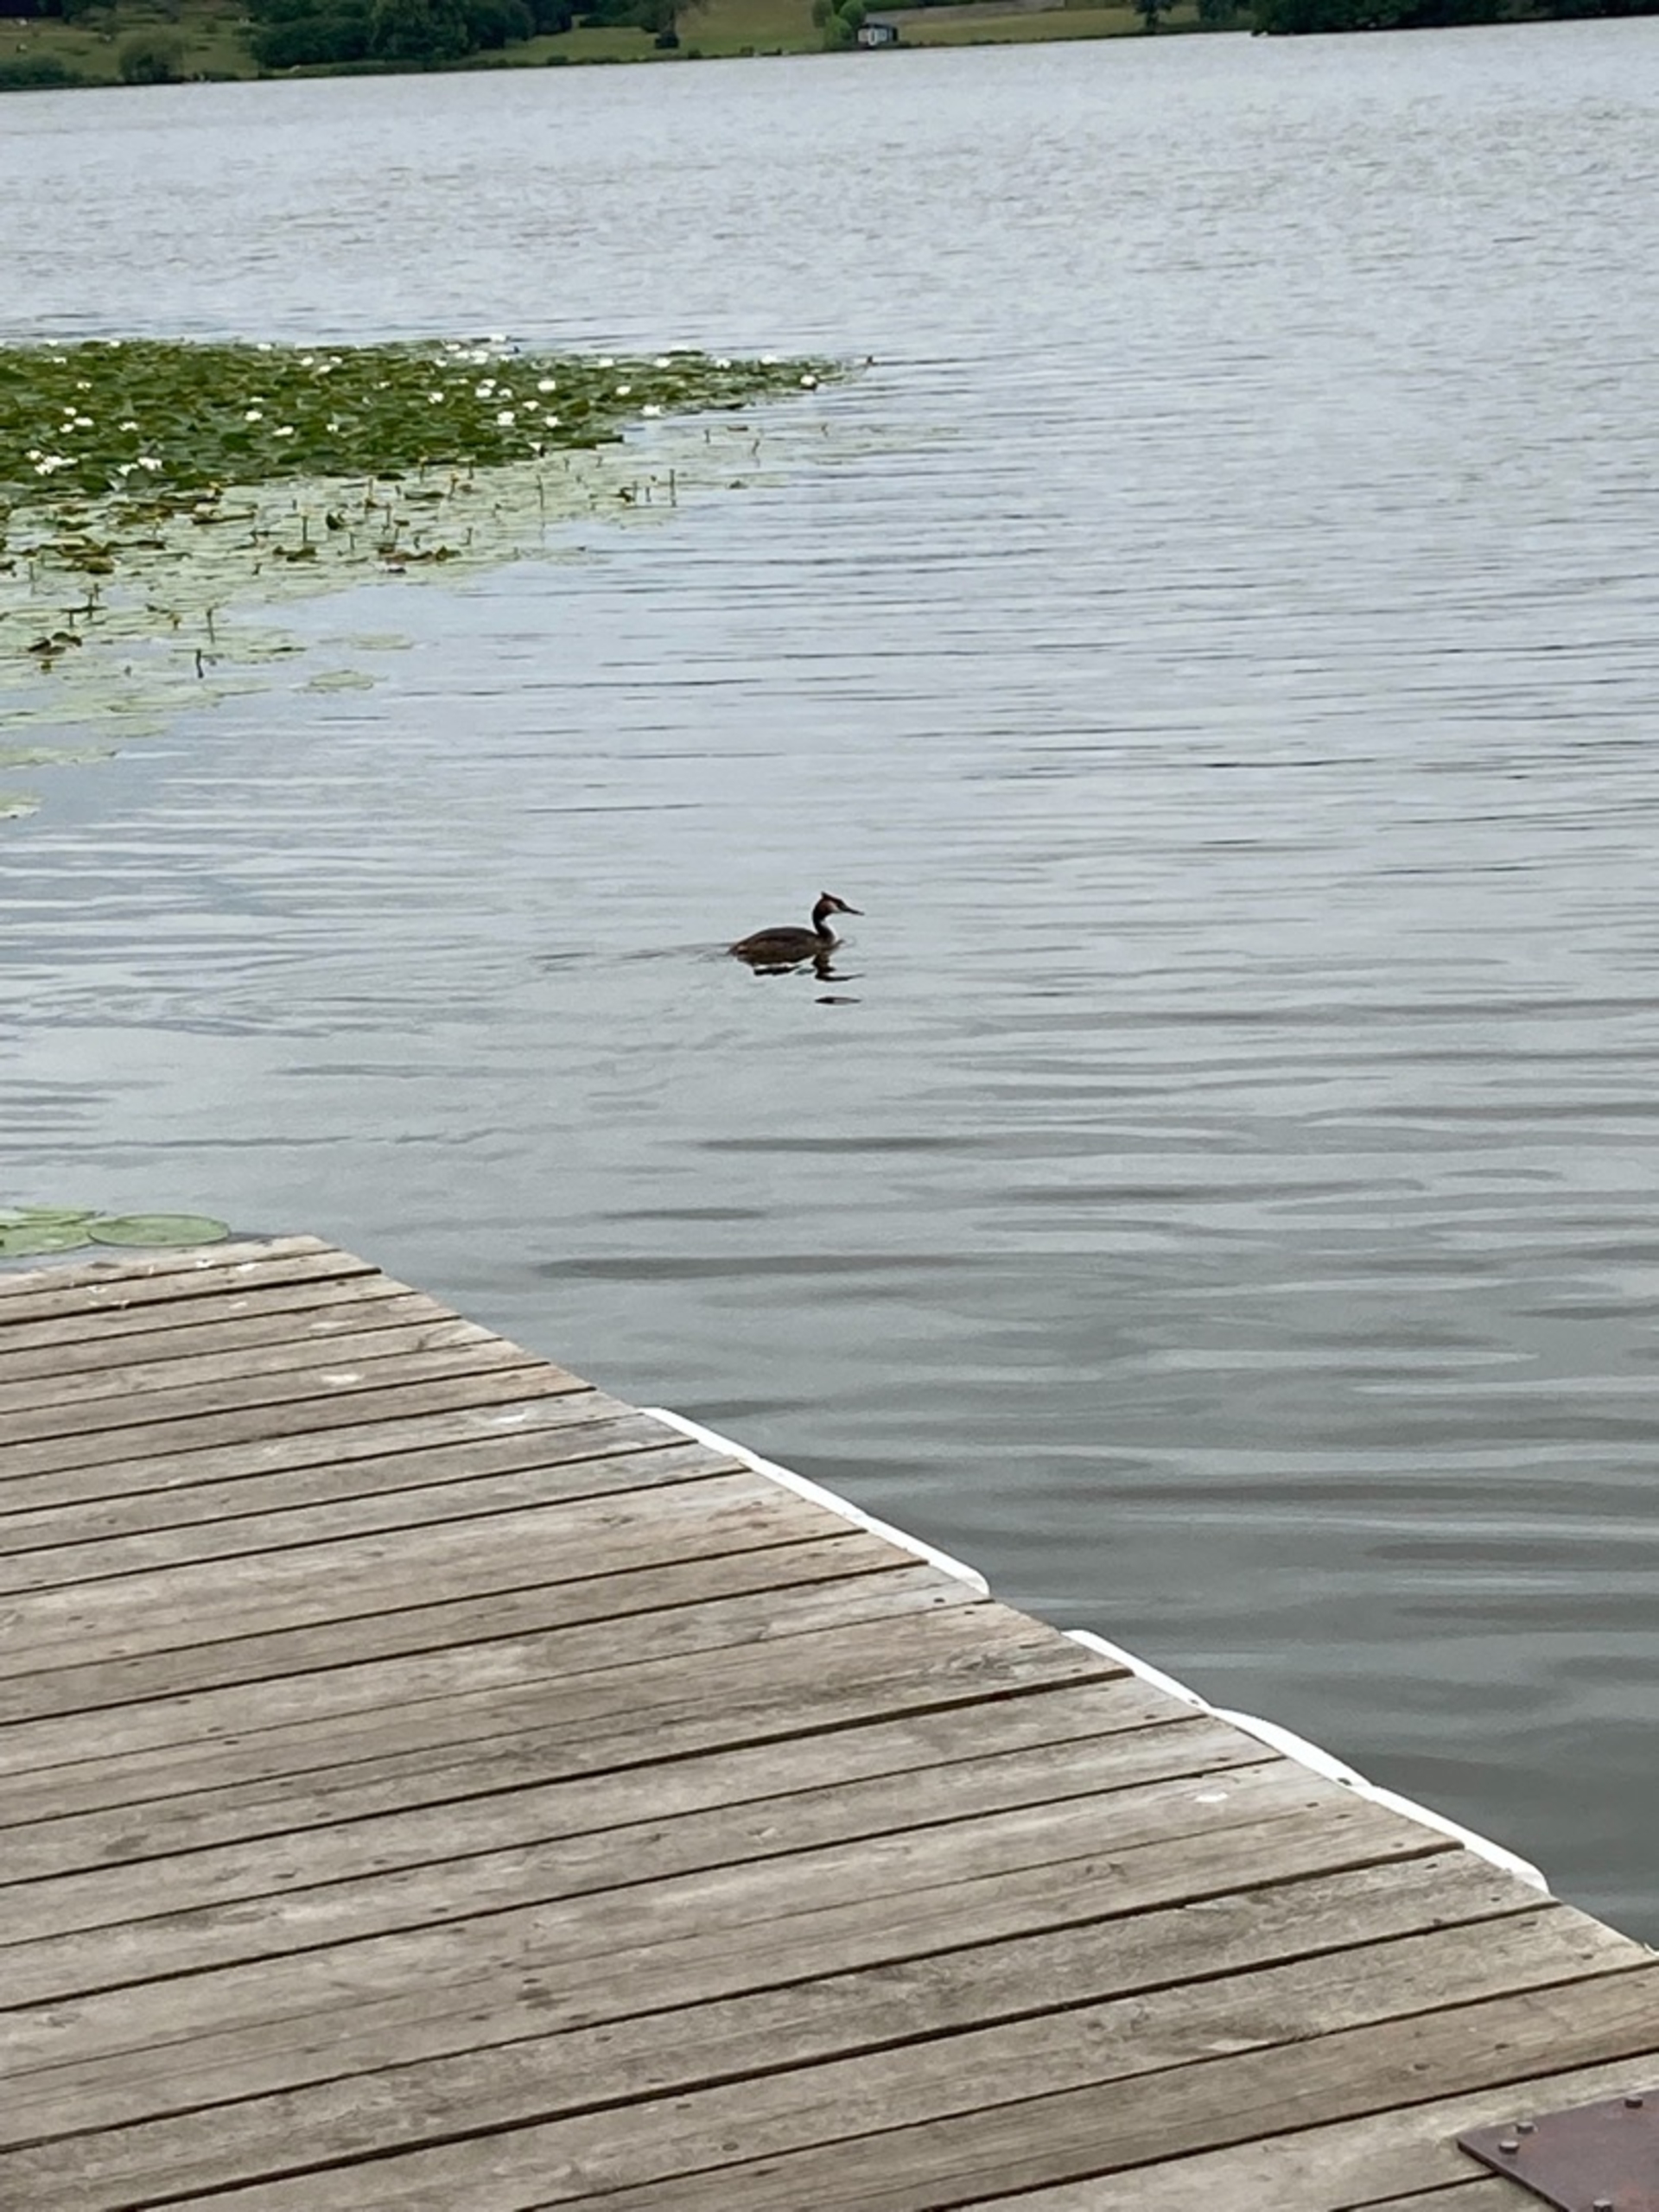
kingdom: Animalia
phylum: Chordata
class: Aves
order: Podicipediformes
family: Podicipedidae
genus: Podiceps
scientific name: Podiceps cristatus
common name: Toppet lappedykker
